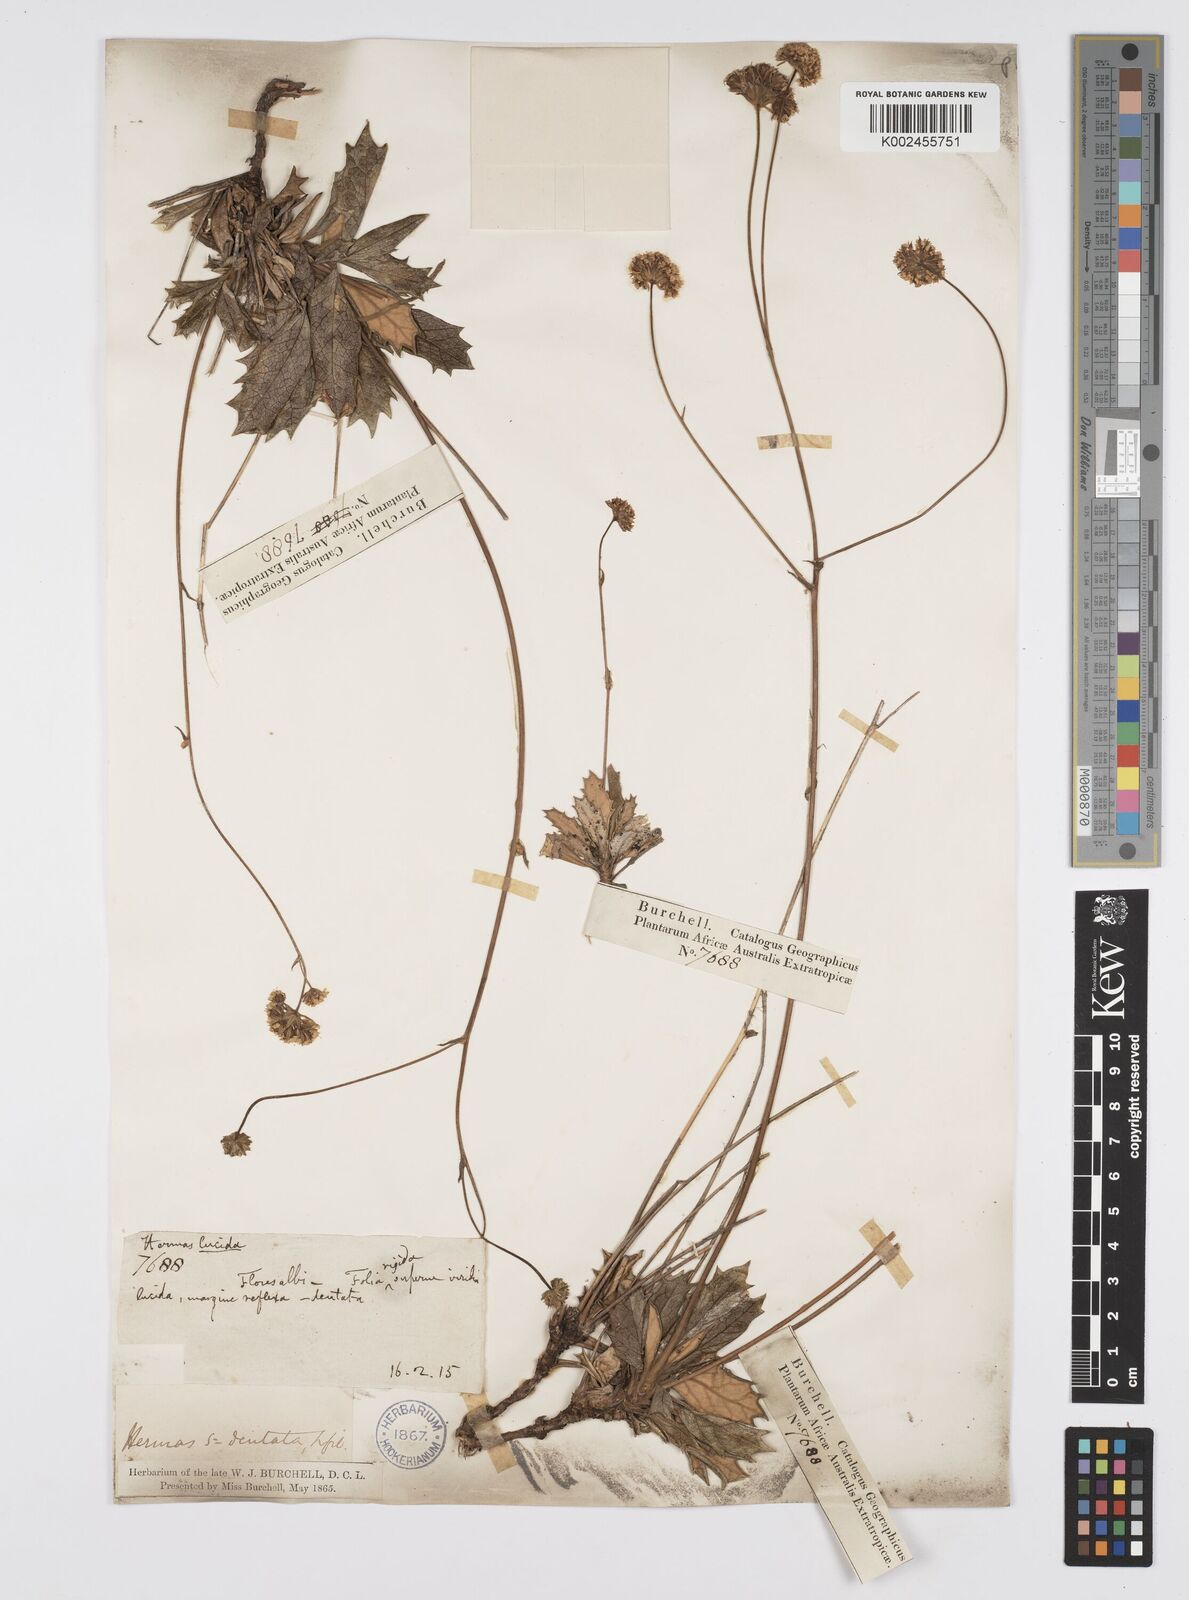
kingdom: Plantae
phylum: Tracheophyta
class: Magnoliopsida
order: Apiales
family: Apiaceae
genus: Hermas
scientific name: Hermas quinquedentata
